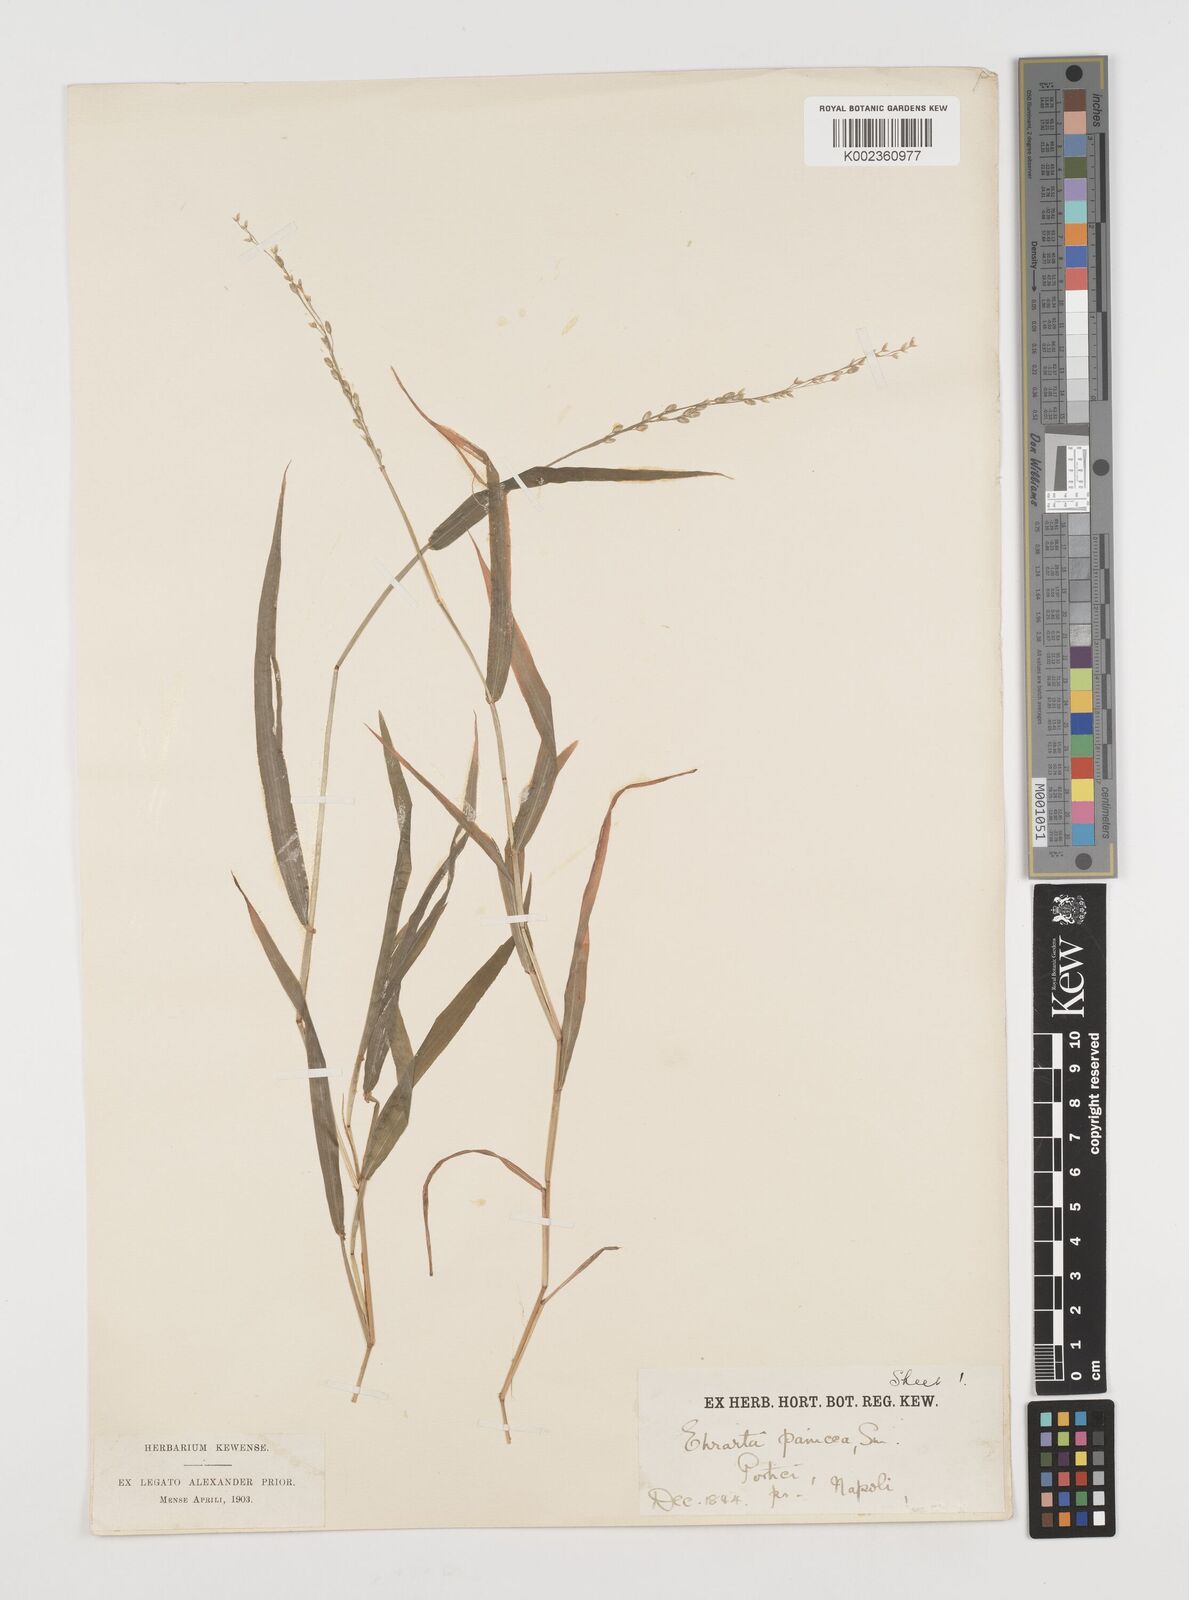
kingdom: Plantae
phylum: Tracheophyta
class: Liliopsida
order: Poales
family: Poaceae
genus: Ehrharta
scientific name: Ehrharta erecta
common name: Panic veldtgrass
